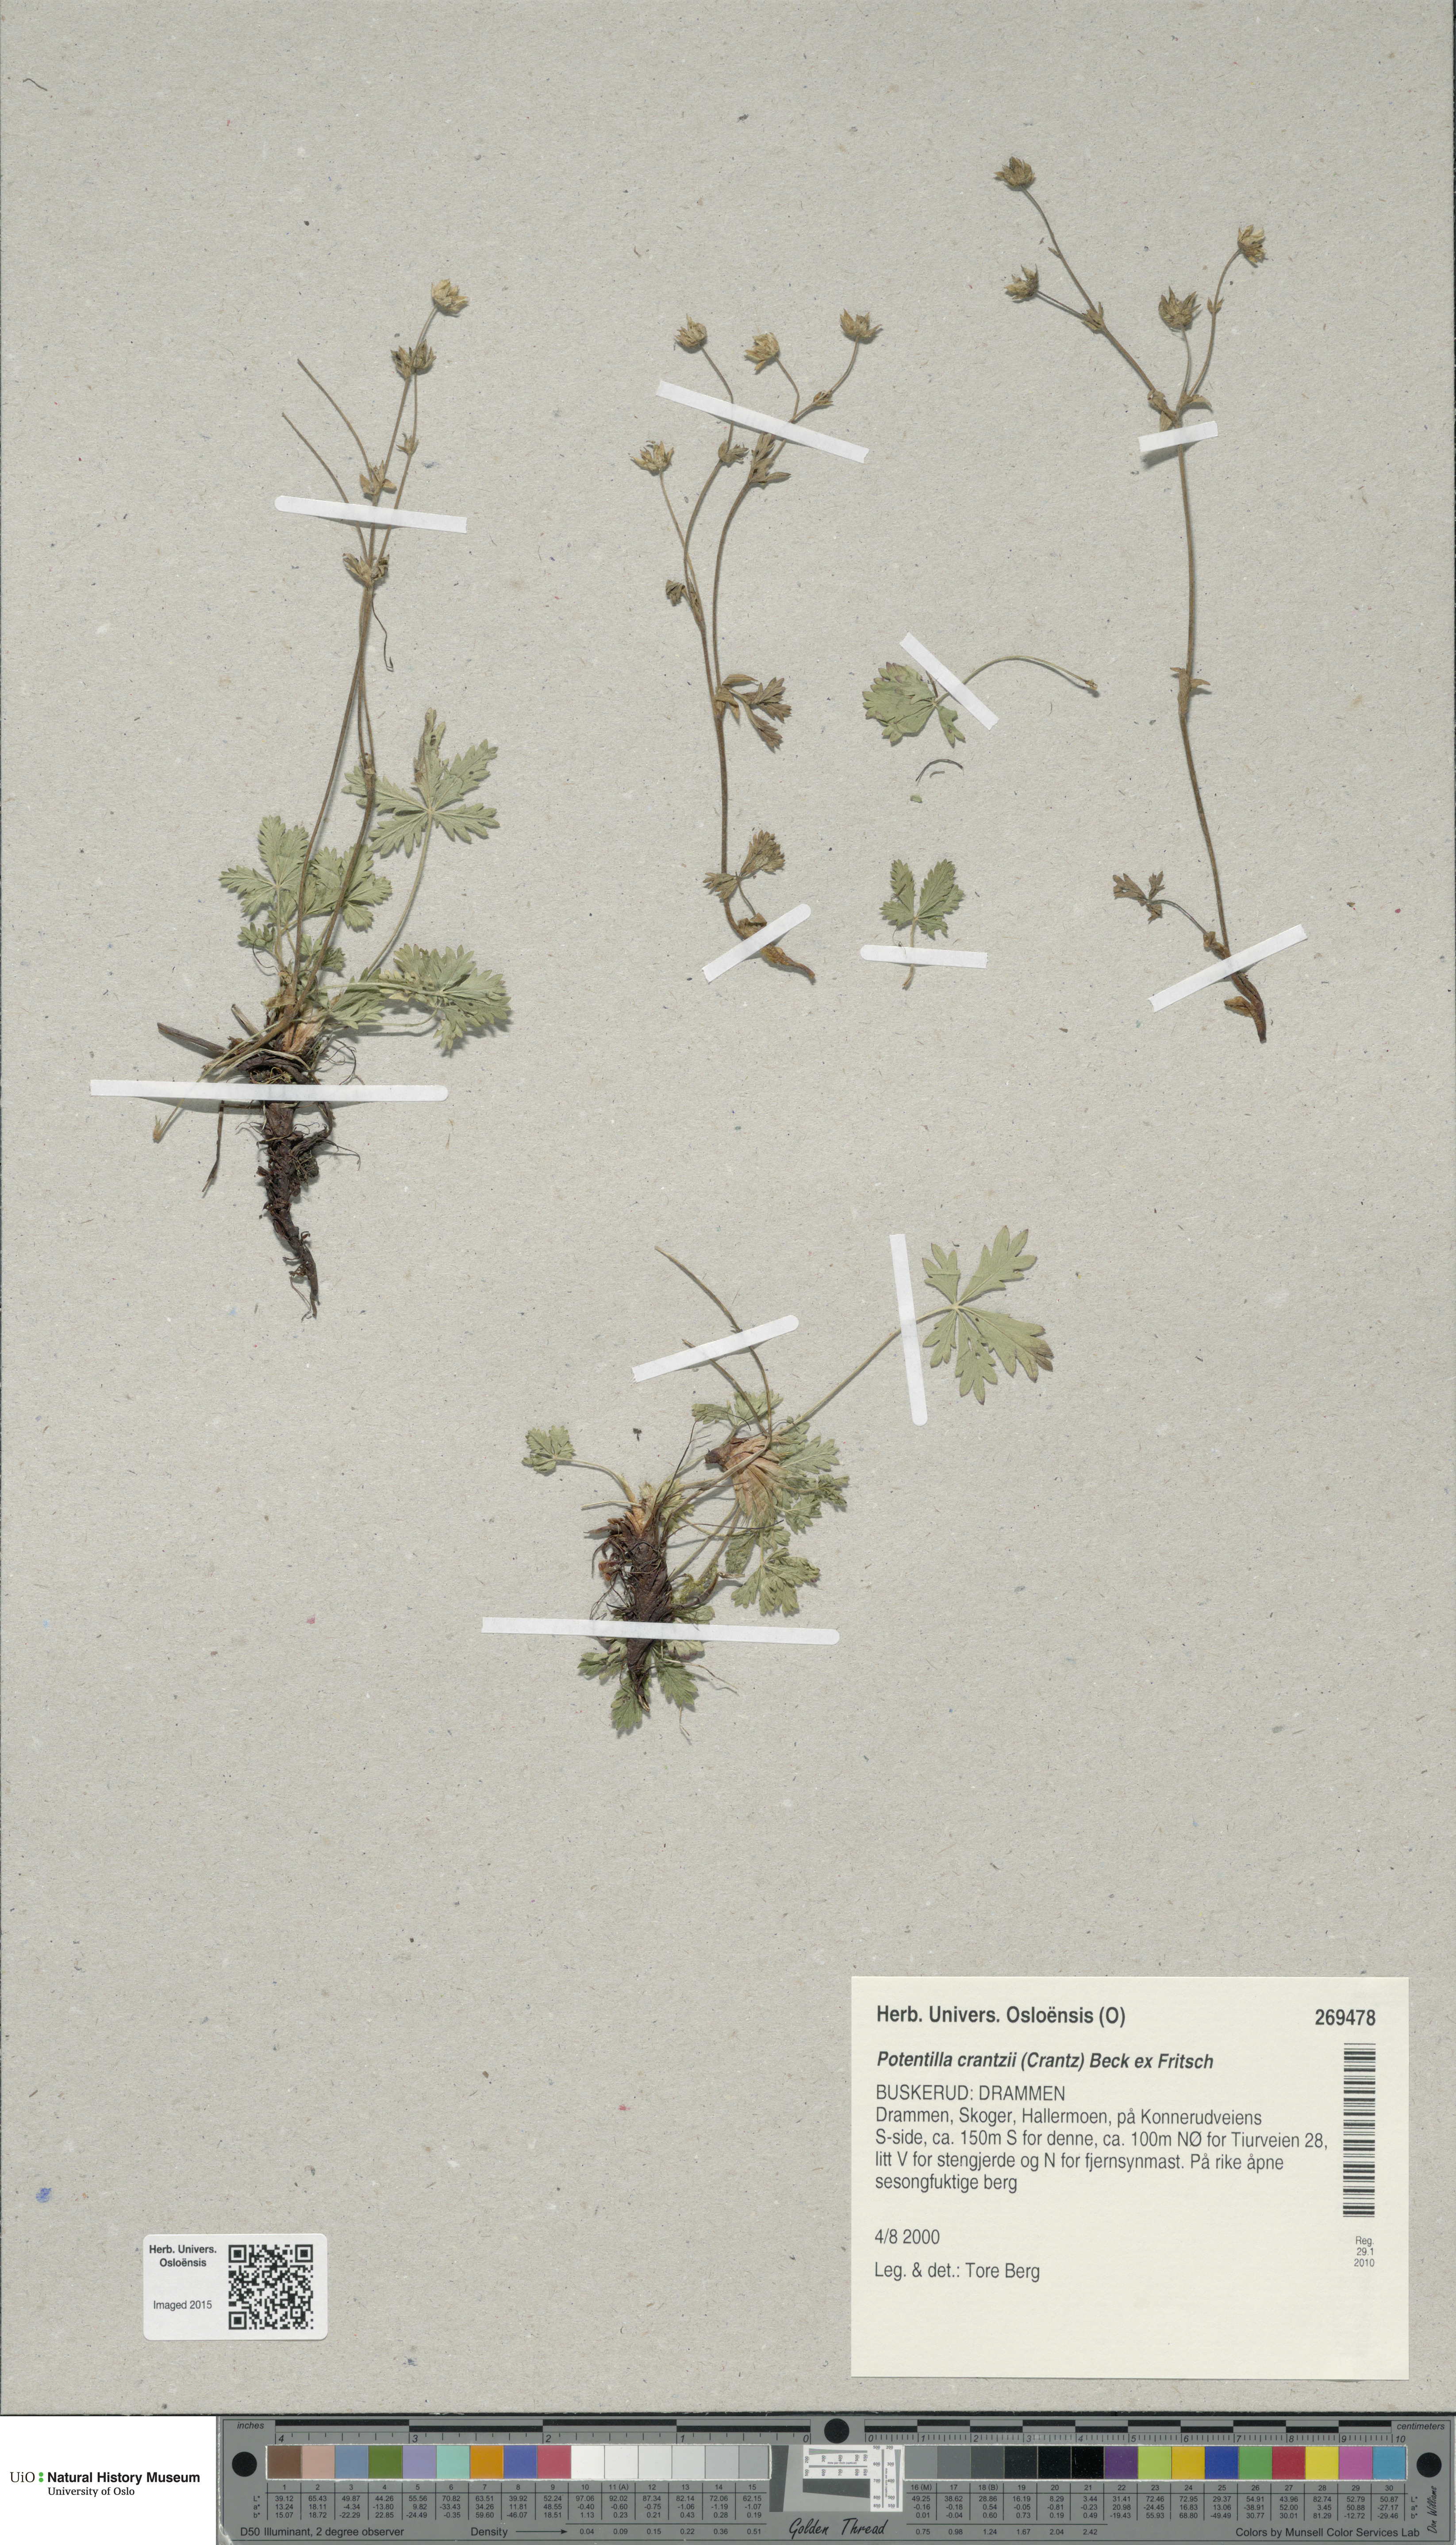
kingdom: Plantae
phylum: Tracheophyta
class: Magnoliopsida
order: Rosales
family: Rosaceae
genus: Potentilla
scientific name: Potentilla crantzii
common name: Alpine cinquefoil
